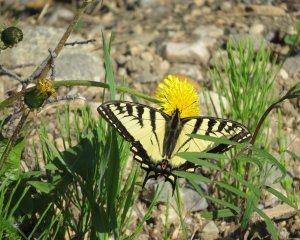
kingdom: Animalia
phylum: Arthropoda
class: Insecta
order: Lepidoptera
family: Papilionidae
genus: Pterourus
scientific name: Pterourus canadensis
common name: Canadian Tiger Swallowtail
